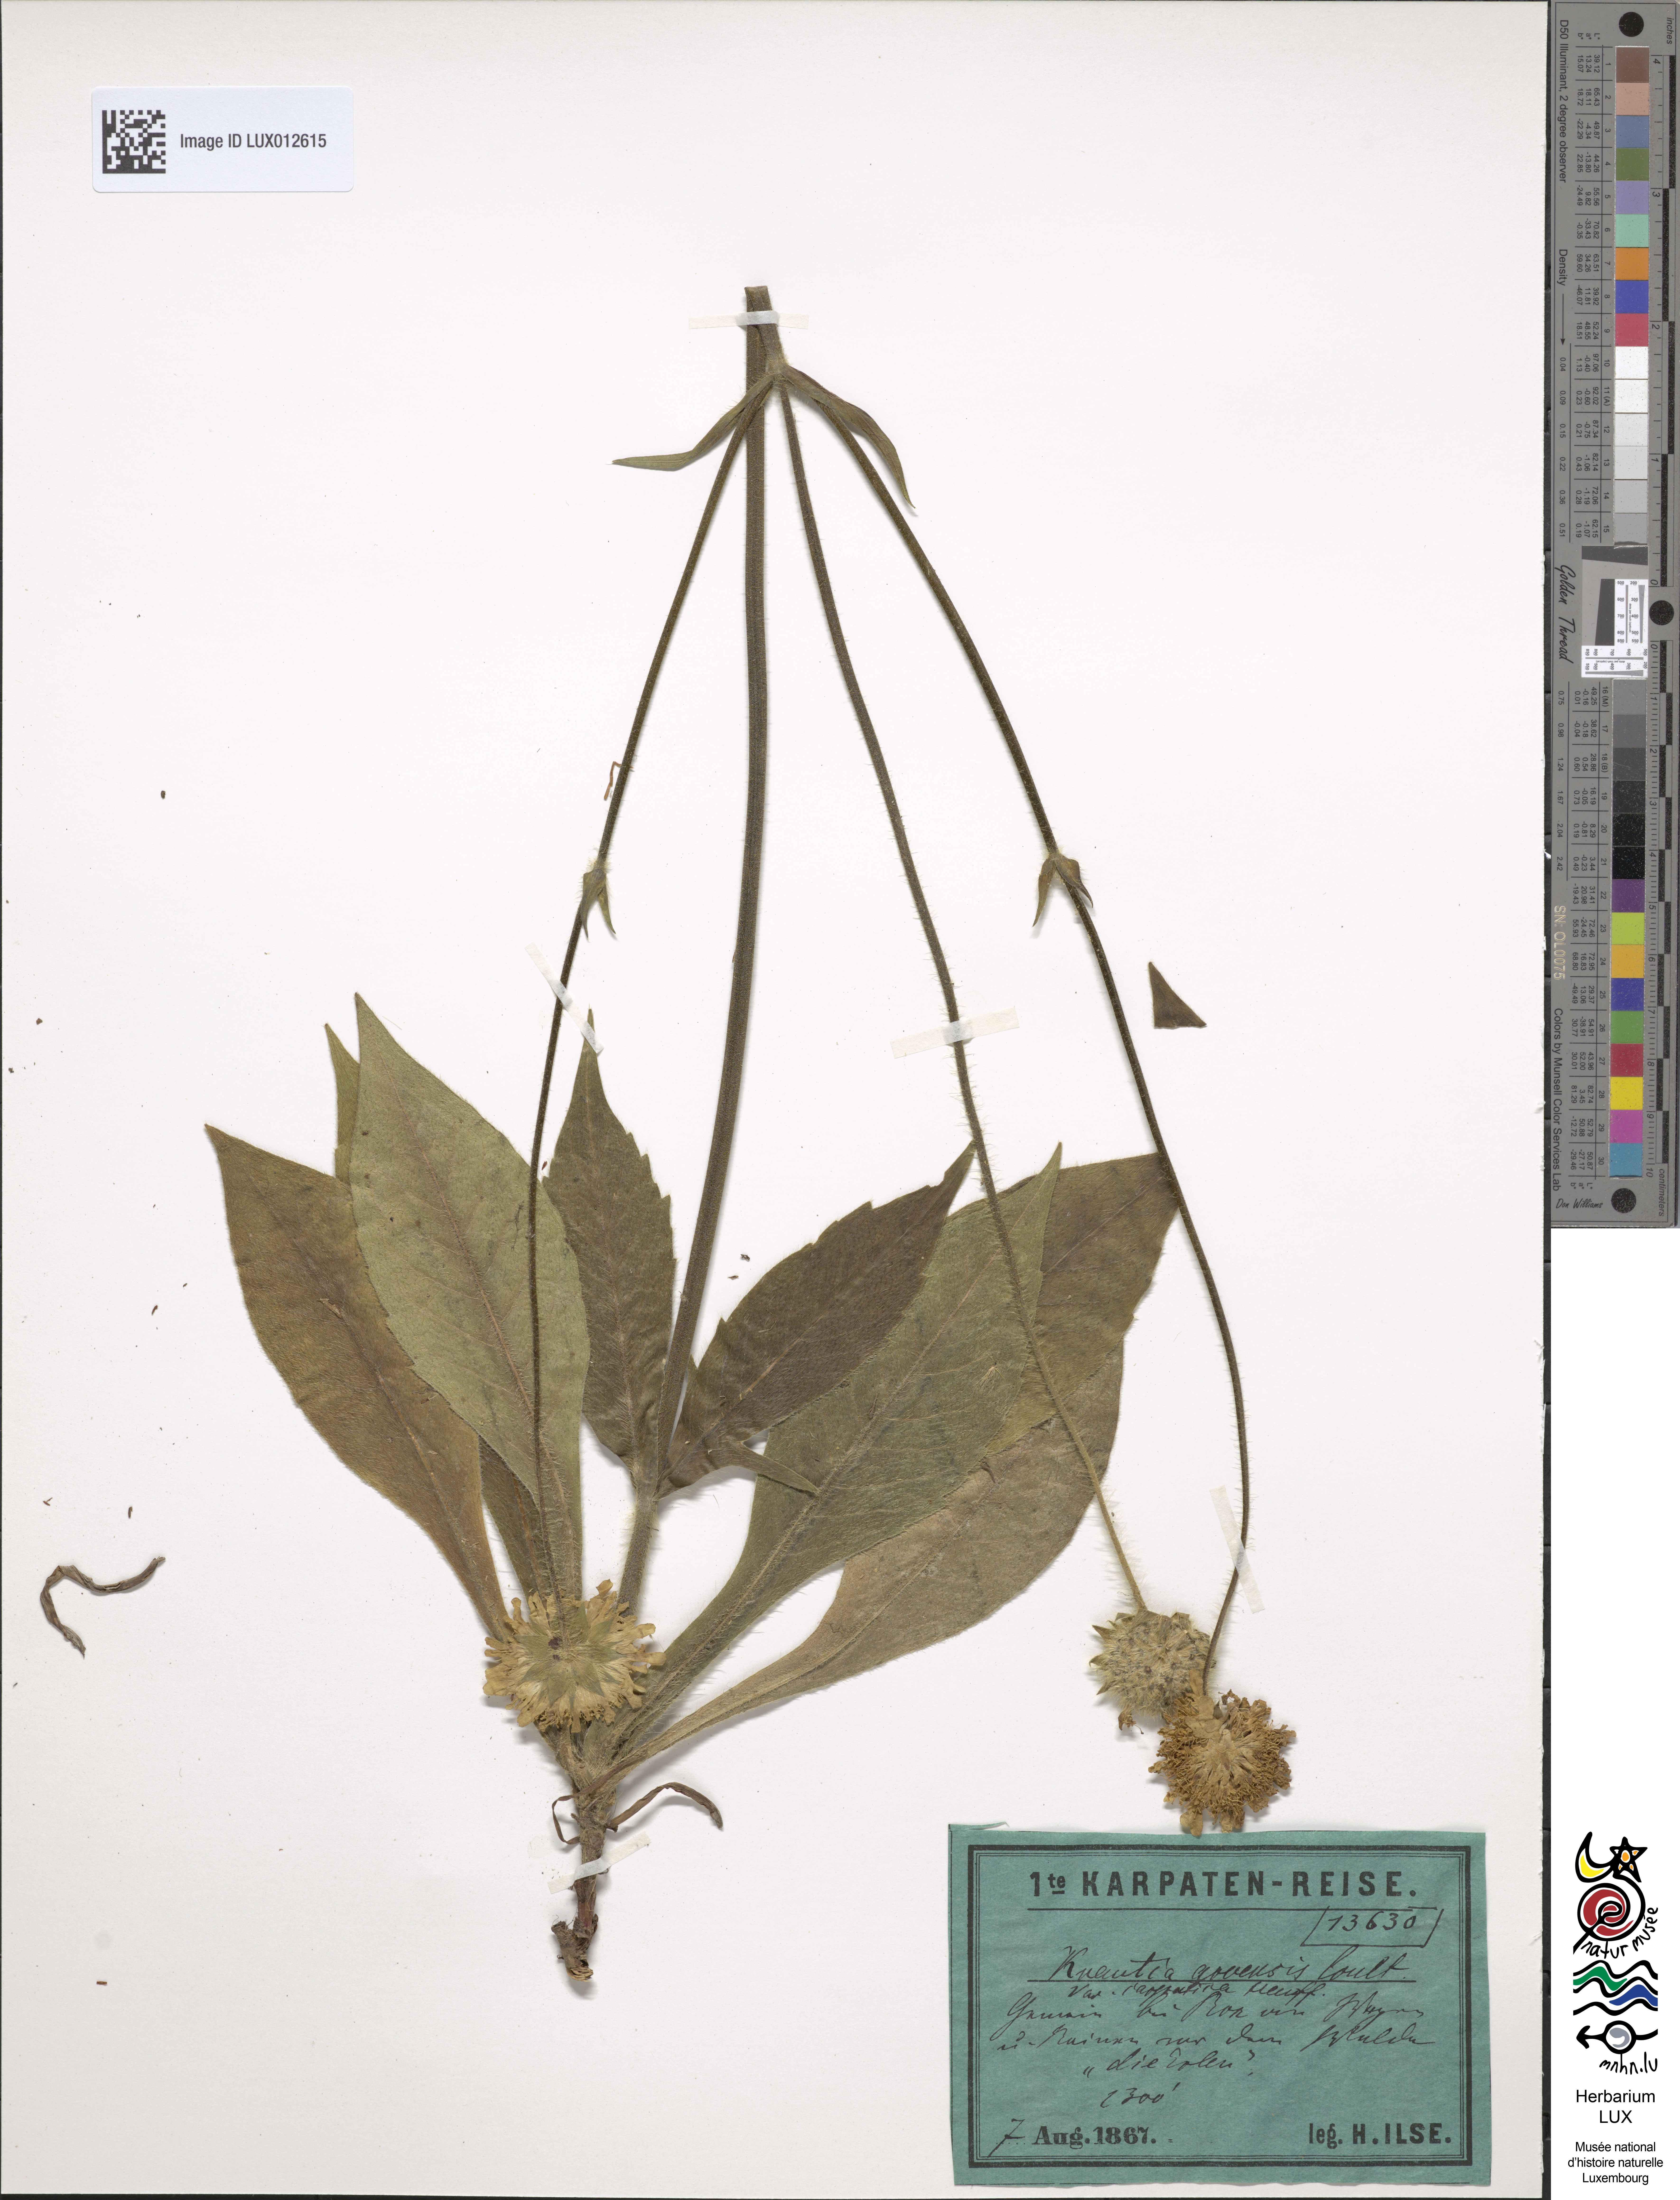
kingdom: Plantae
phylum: Tracheophyta
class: Magnoliopsida
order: Dipsacales
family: Caprifoliaceae
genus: Knautia
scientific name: Knautia arvensis
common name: Field scabiosa
